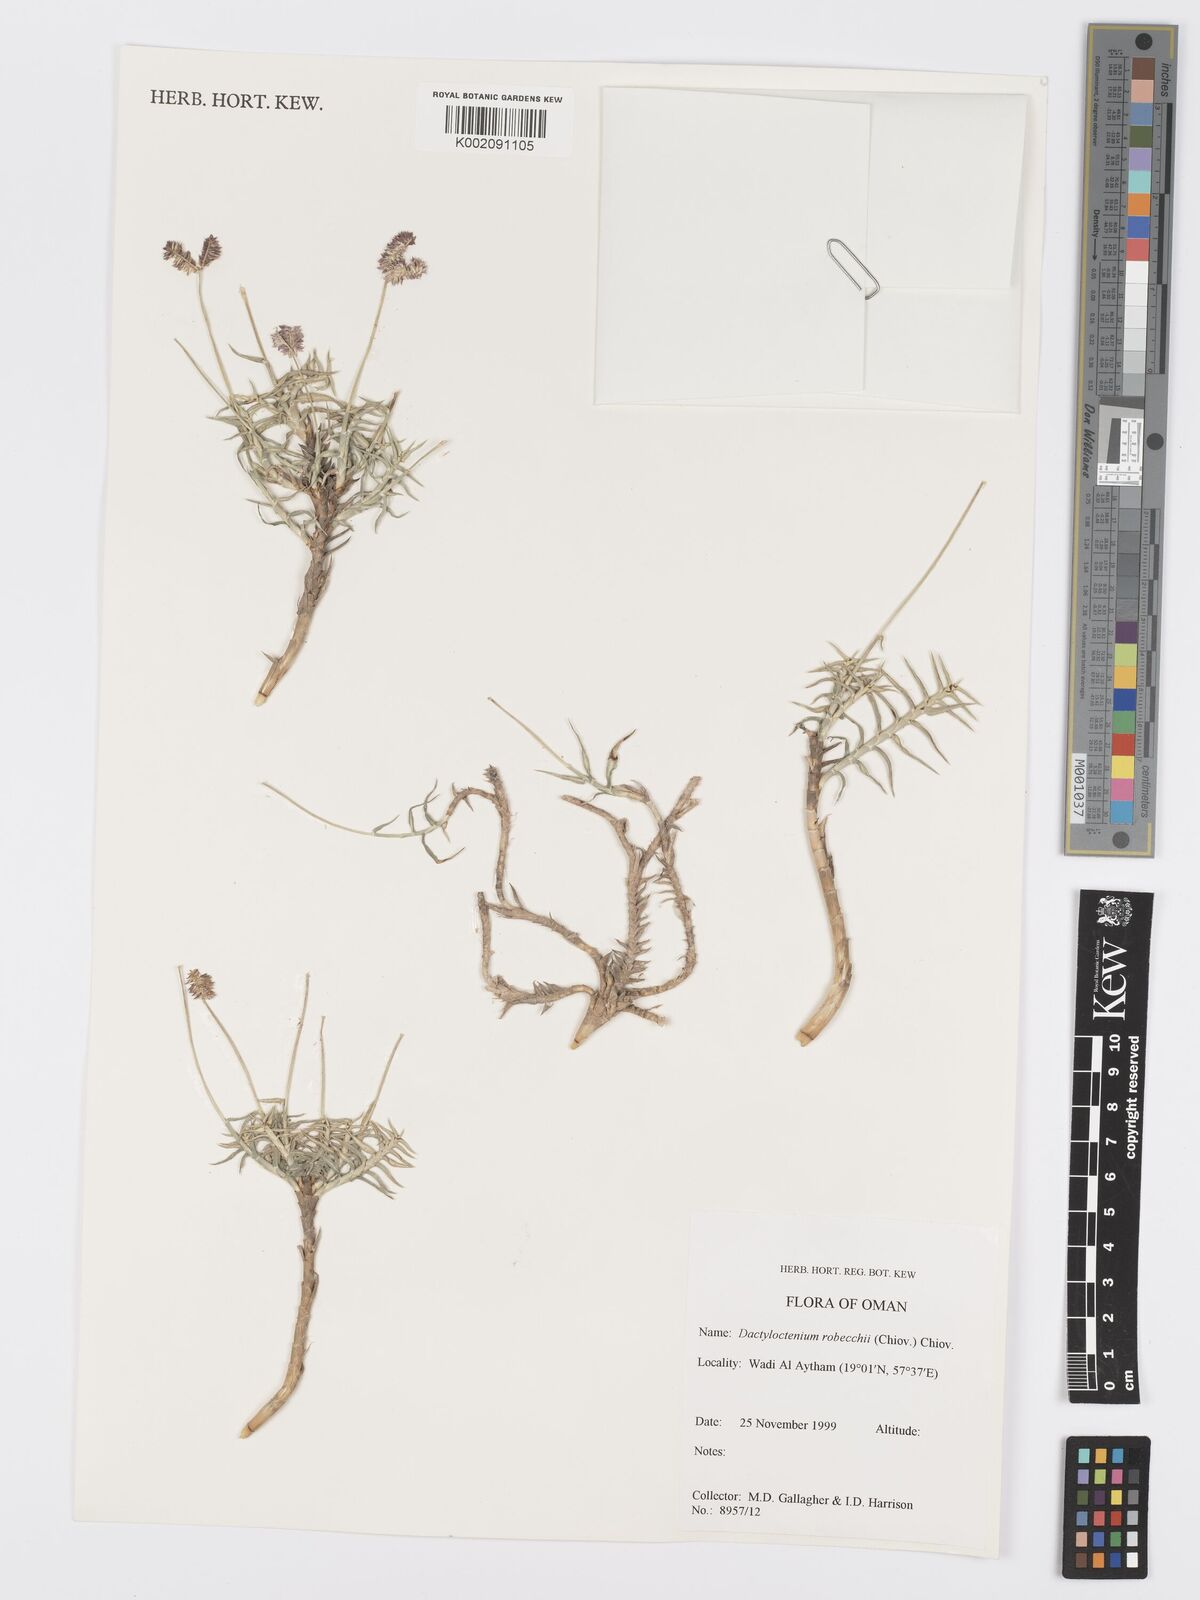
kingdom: Plantae
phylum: Tracheophyta
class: Liliopsida
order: Poales
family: Poaceae
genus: Dactyloctenium
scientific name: Dactyloctenium robecchii
